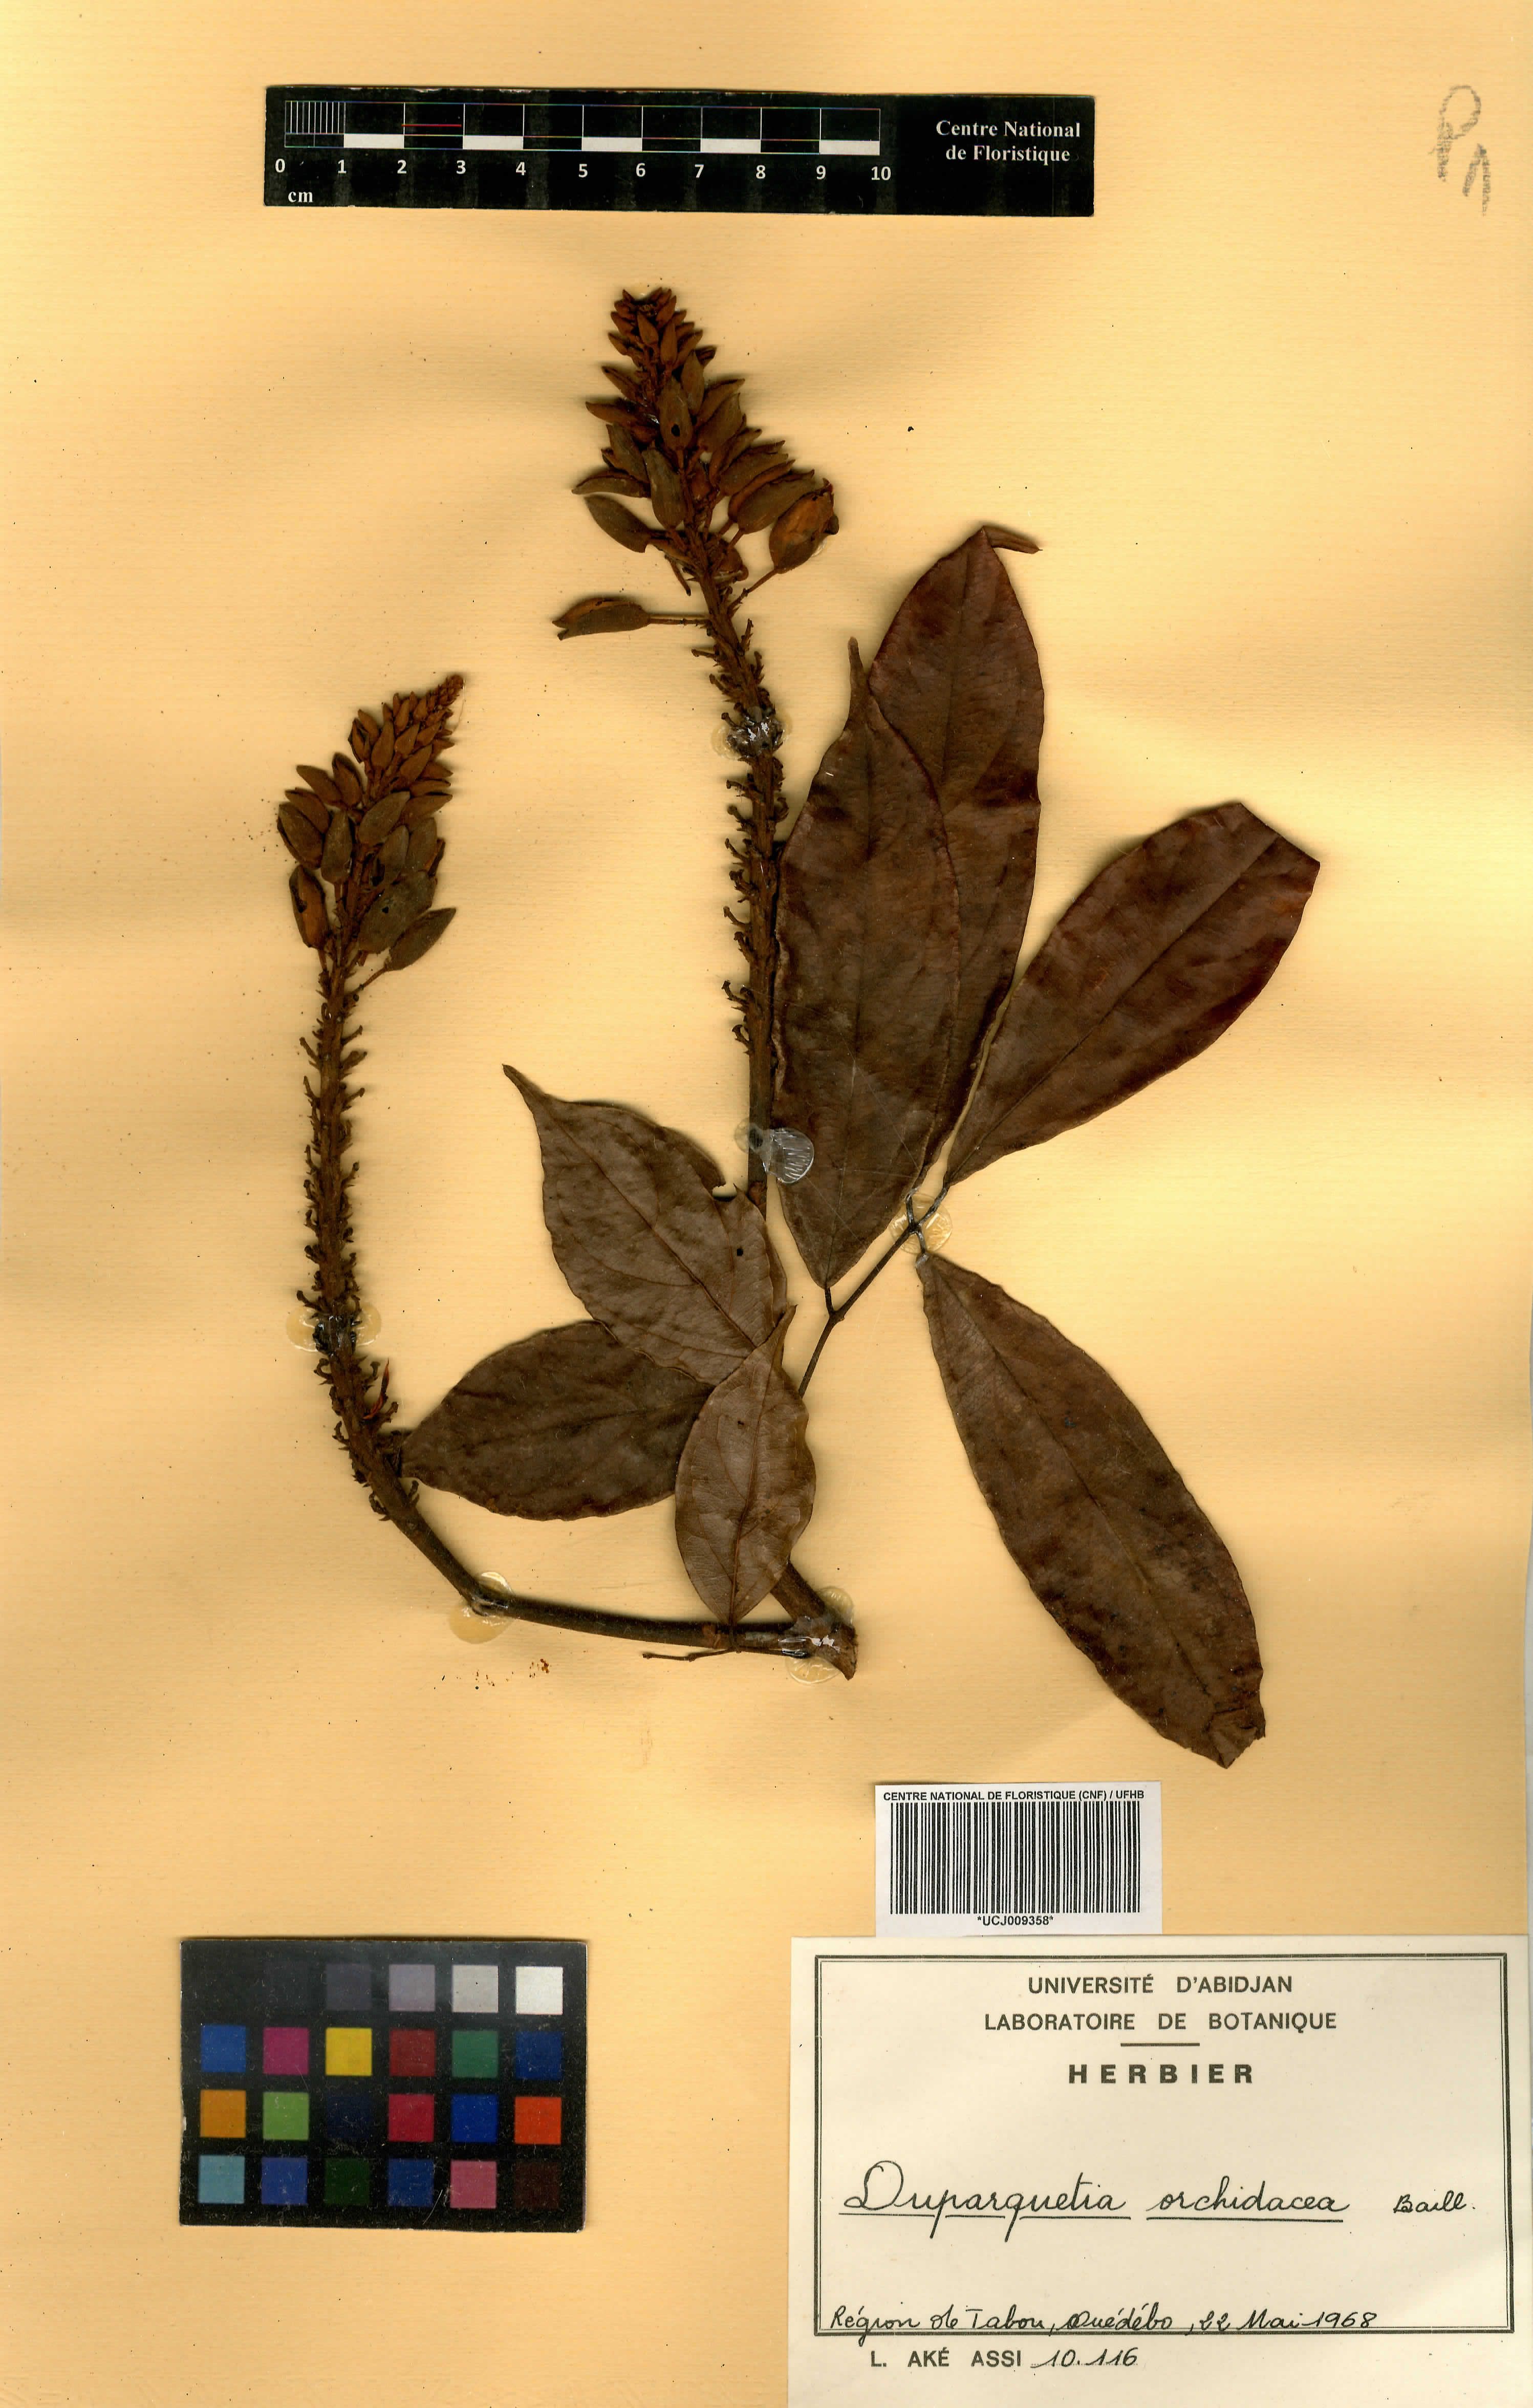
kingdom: Plantae
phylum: Tracheophyta
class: Magnoliopsida
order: Fabales
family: Fabaceae
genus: Duparquetia
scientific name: Duparquetia orchidacea
